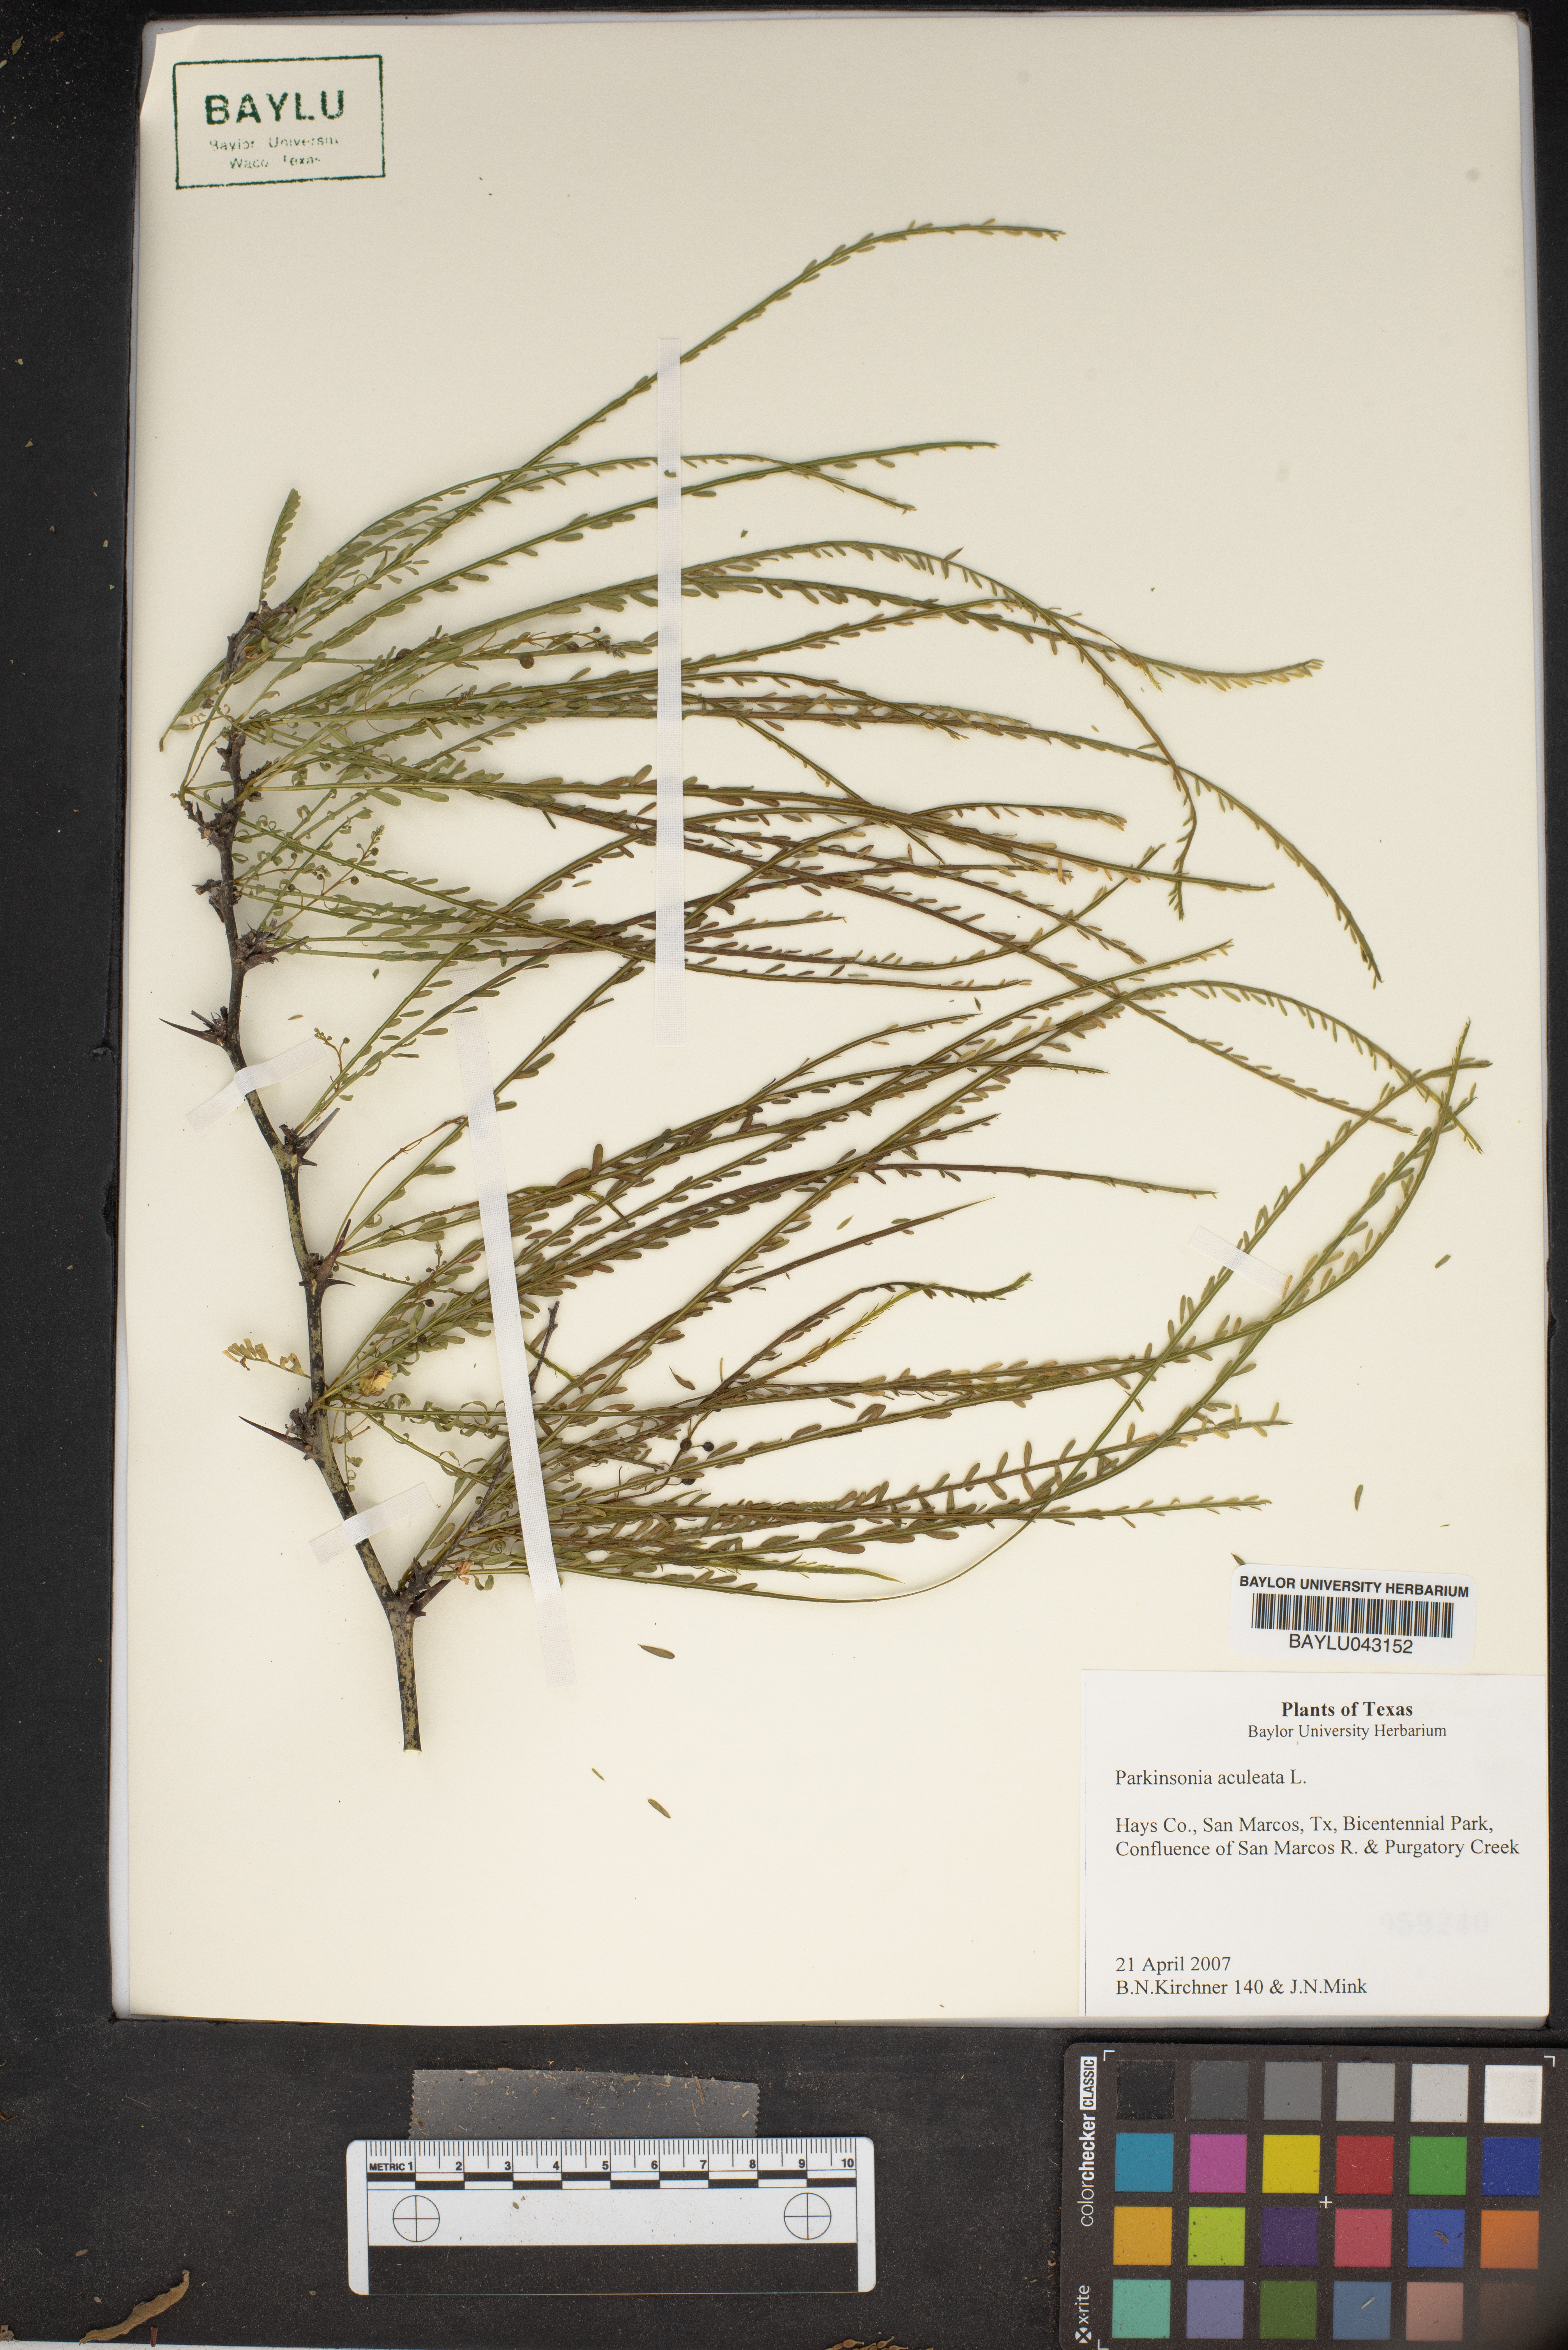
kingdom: Plantae
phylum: Tracheophyta
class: Magnoliopsida
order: Fabales
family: Fabaceae
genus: Parkinsonia
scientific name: Parkinsonia aculeata
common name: Jerusalem thorn
